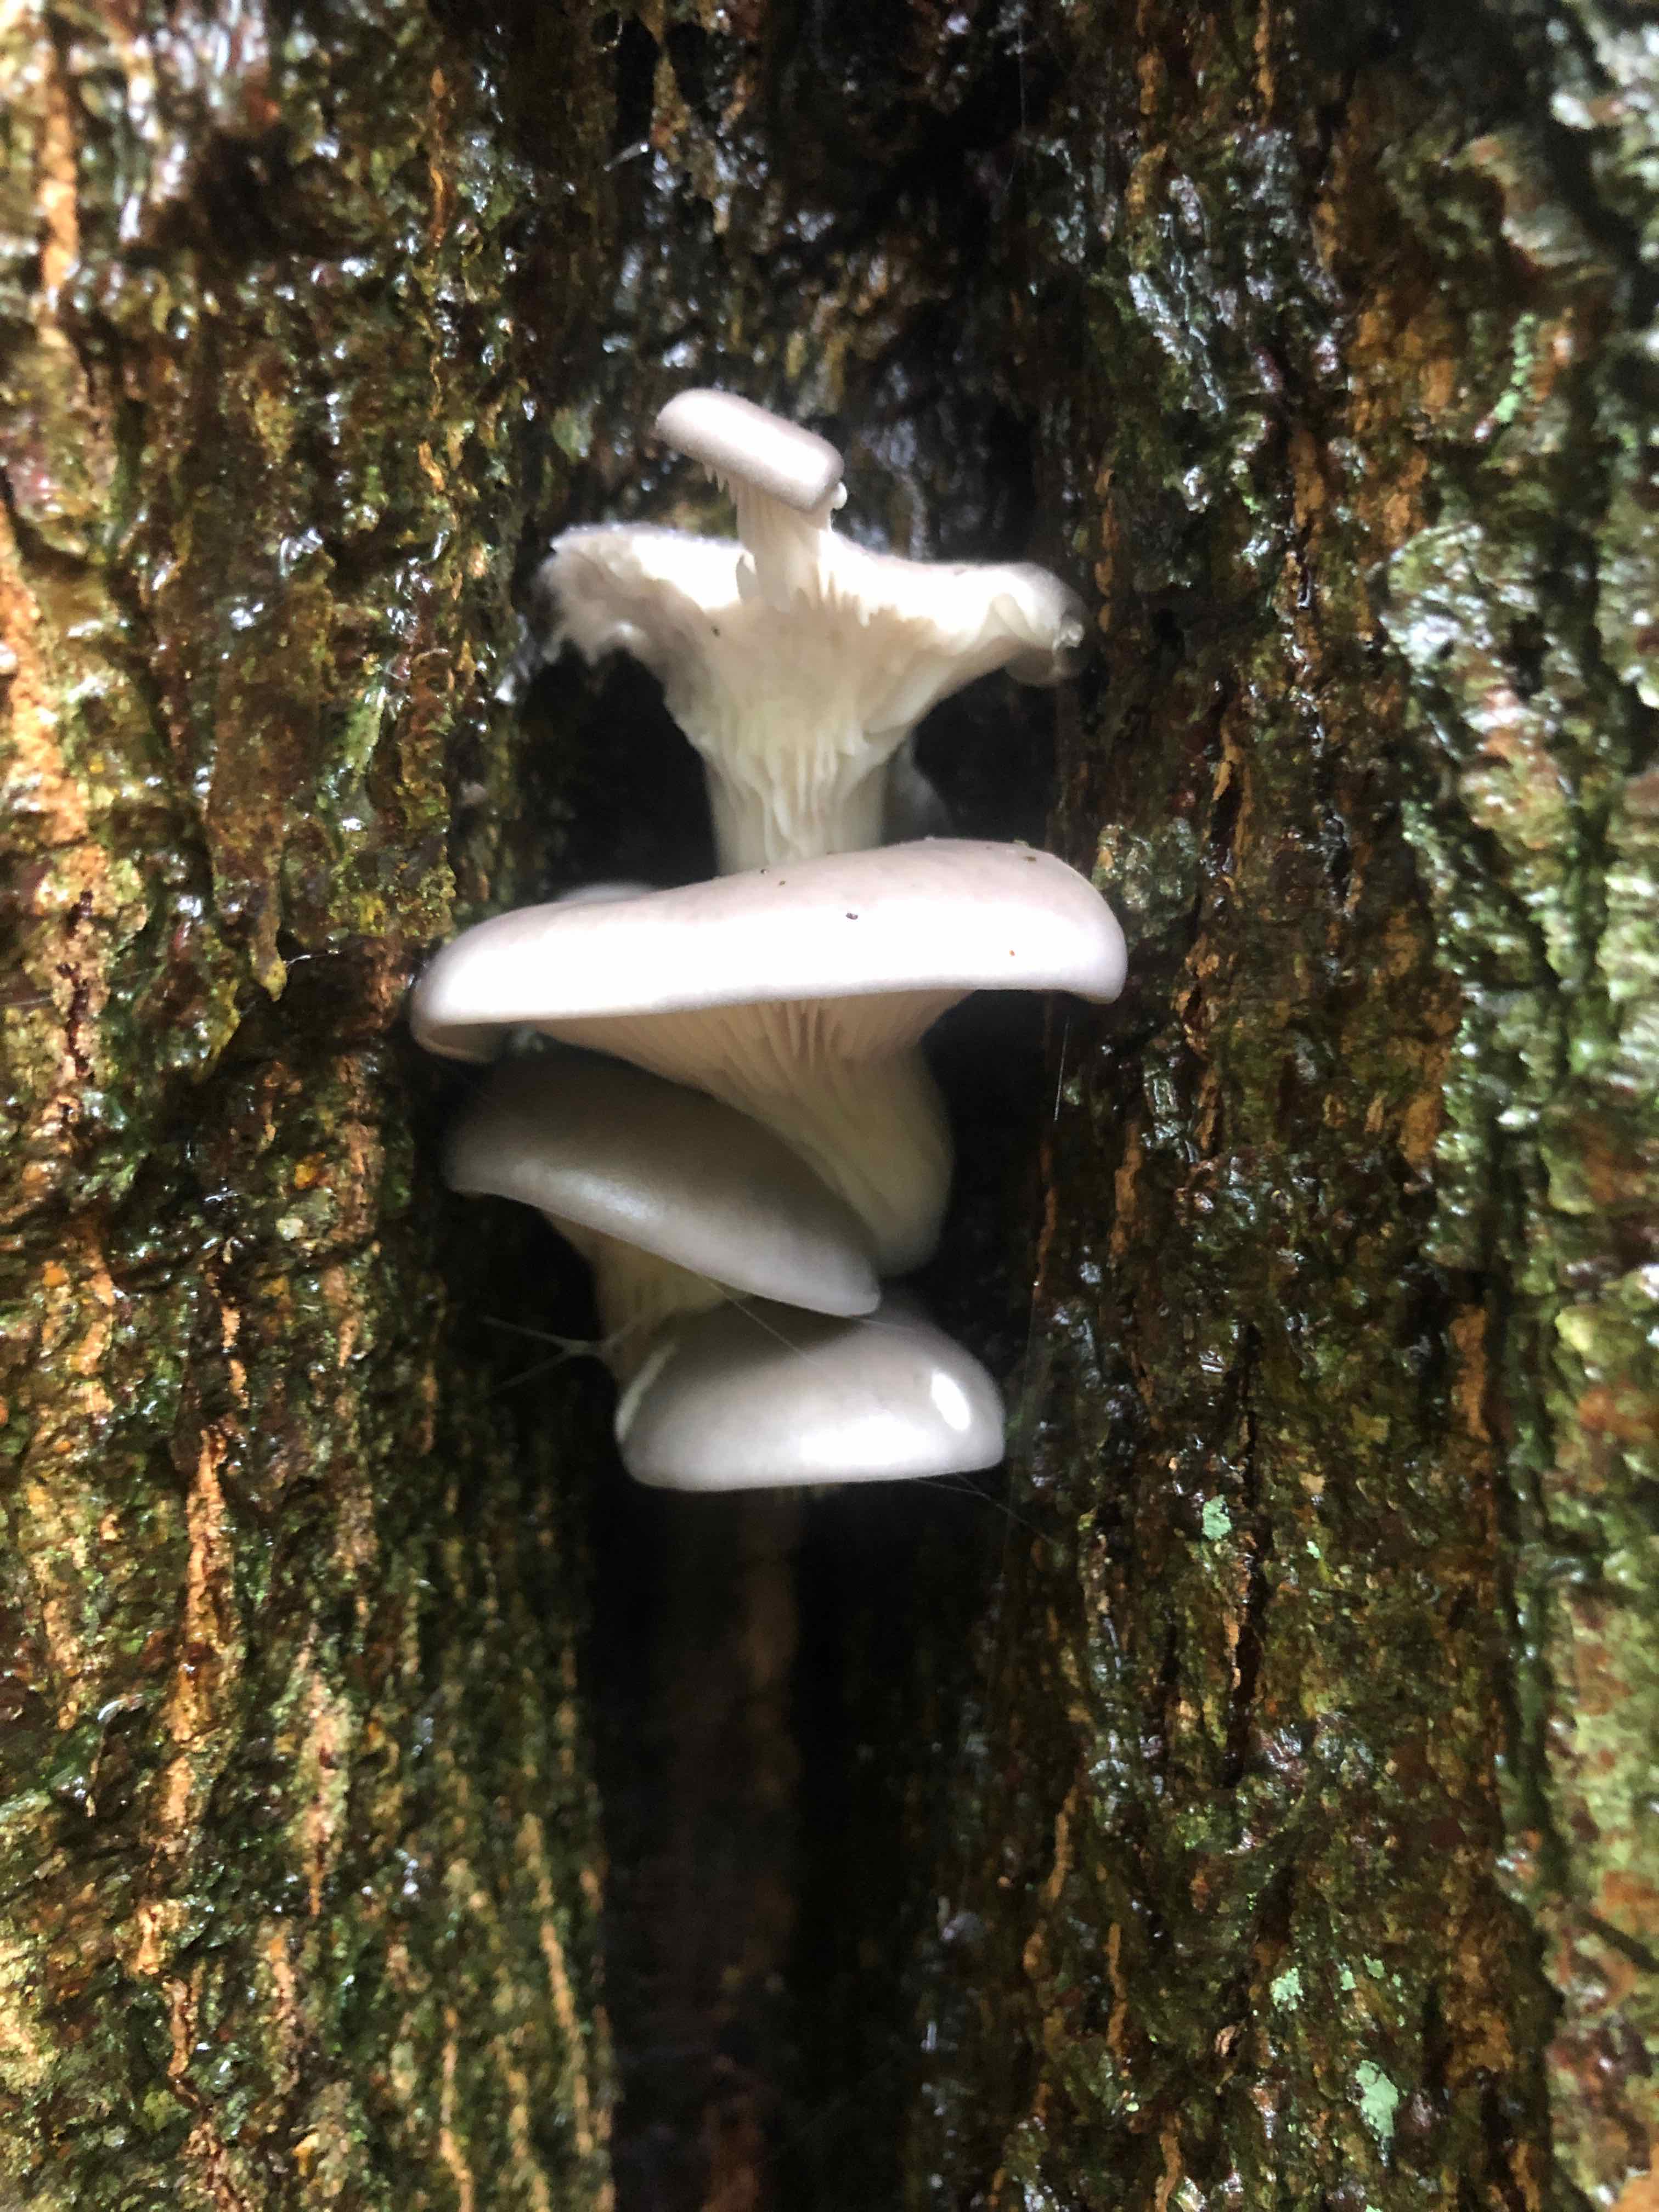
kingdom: Fungi
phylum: Basidiomycota
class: Agaricomycetes
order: Agaricales
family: Pleurotaceae
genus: Pleurotus
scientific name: Pleurotus ostreatus
